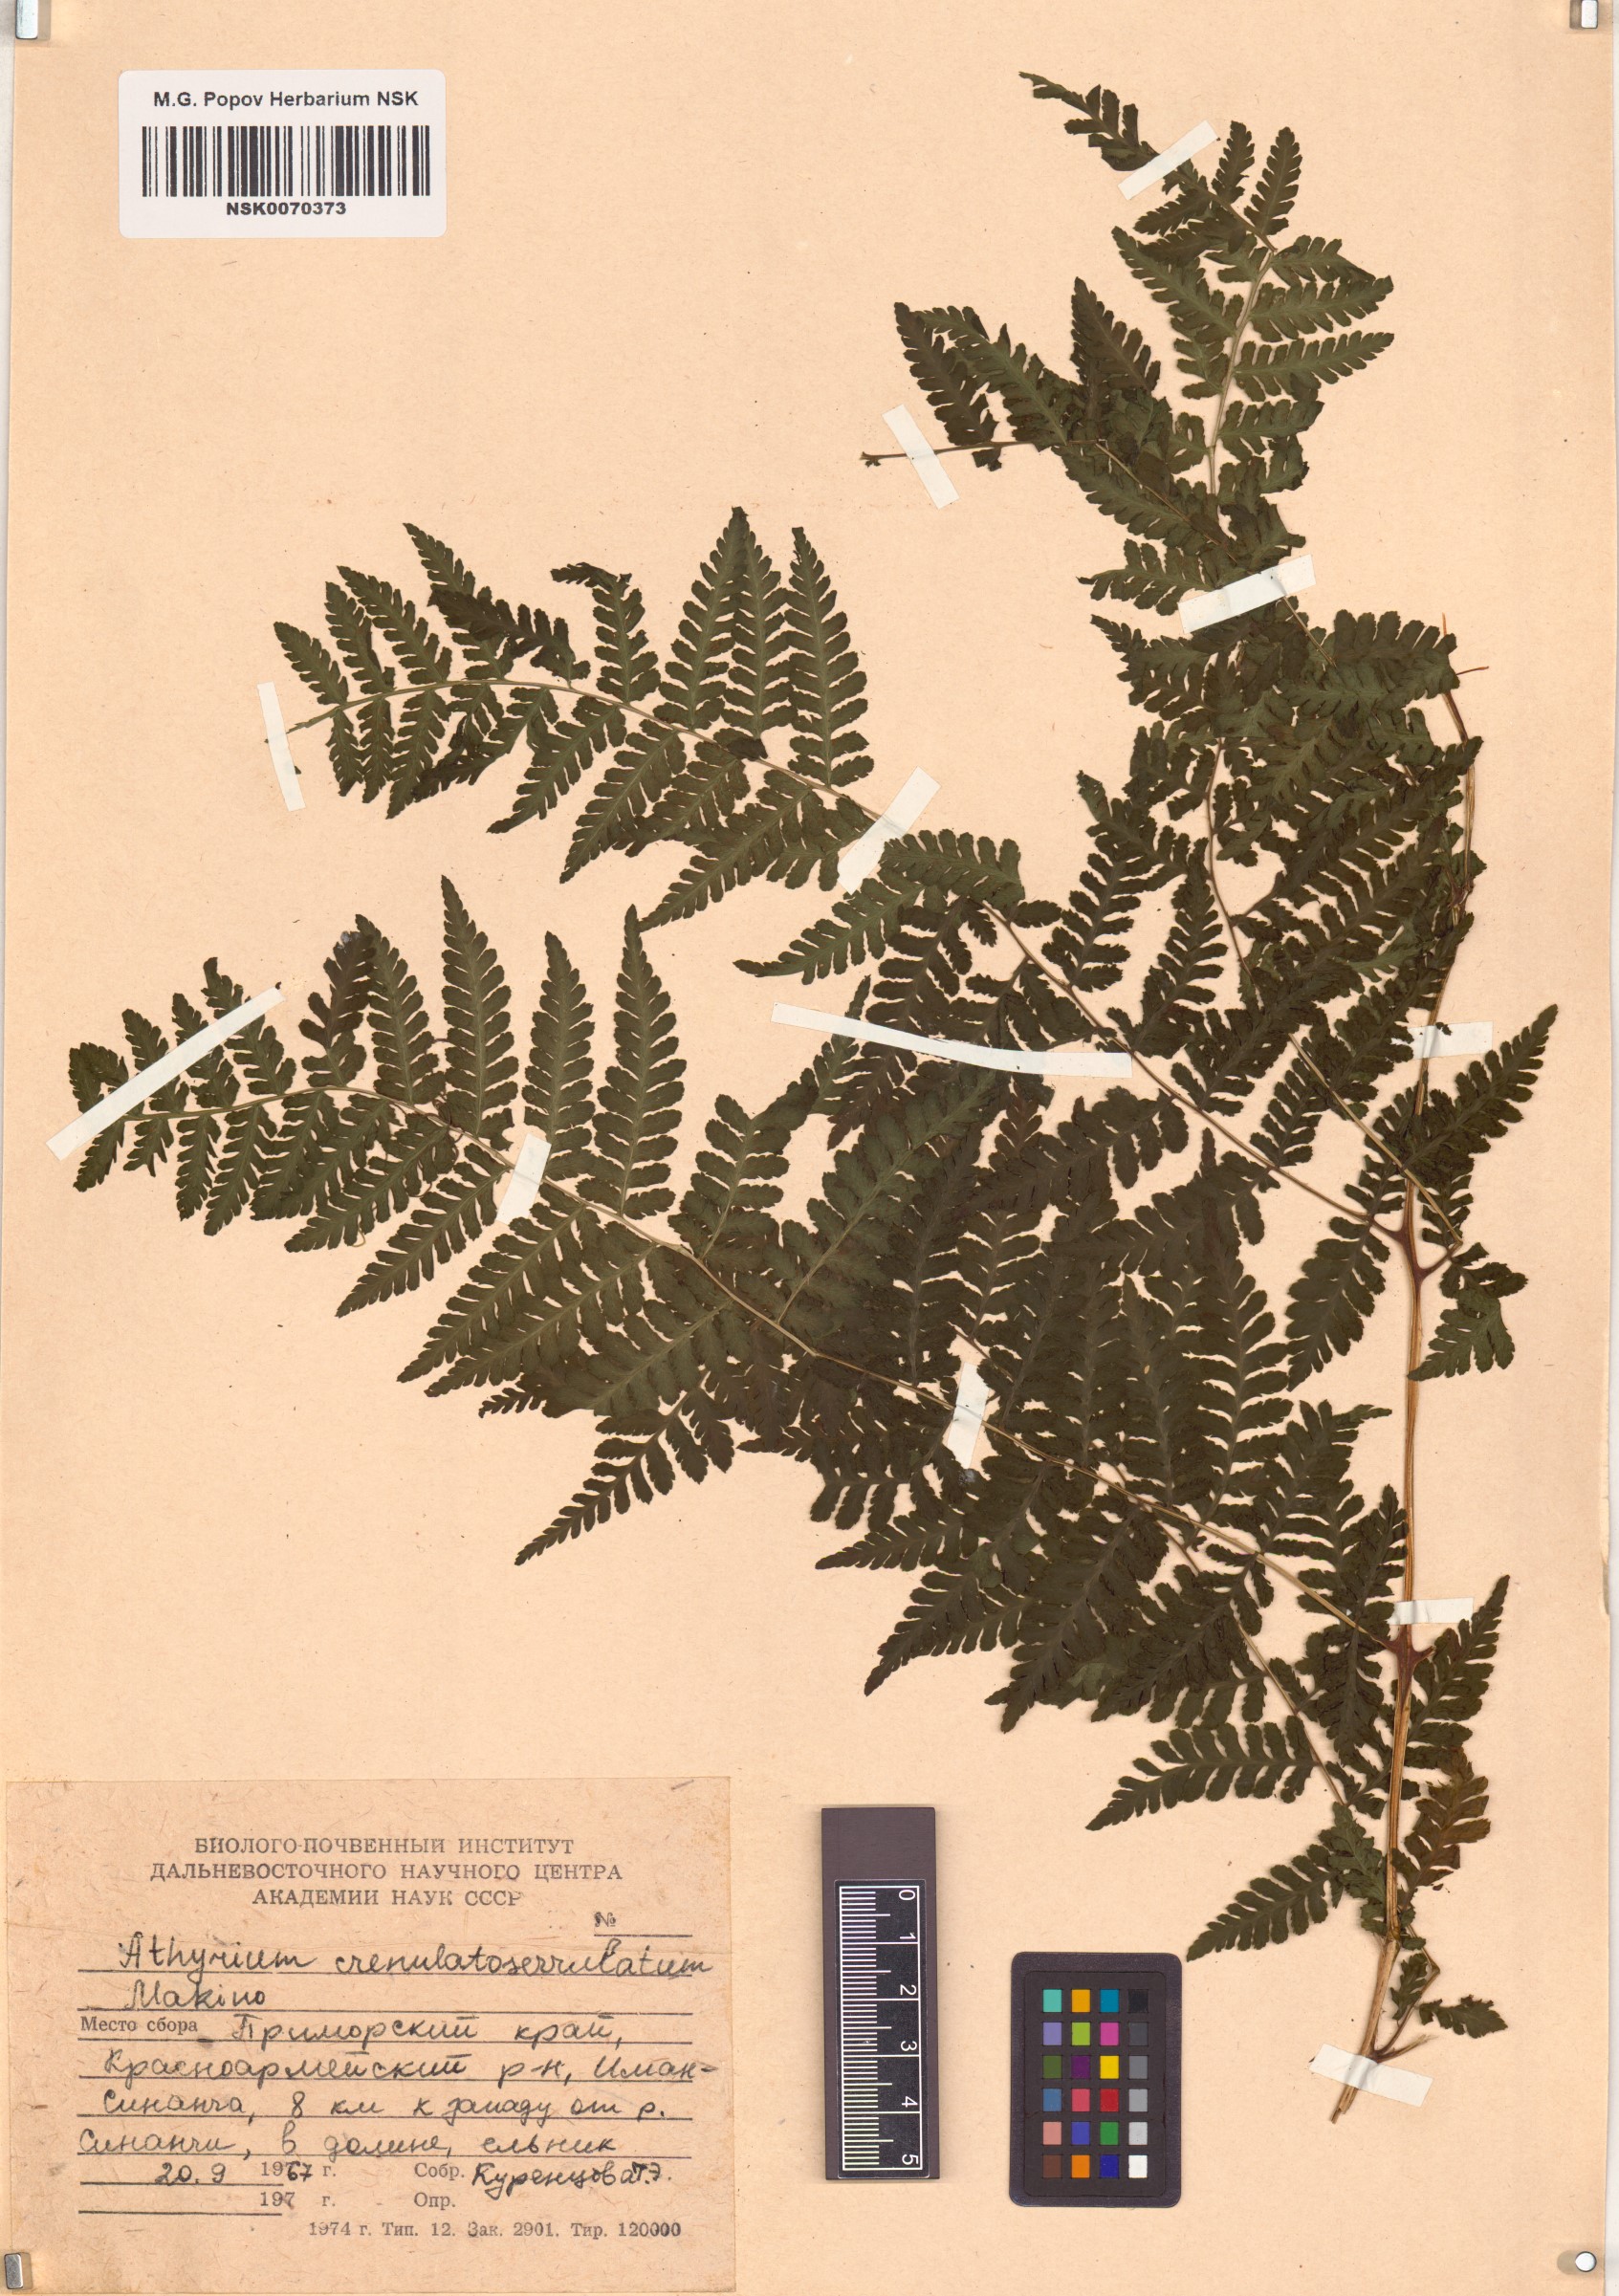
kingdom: Plantae
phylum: Tracheophyta
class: Polypodiopsida
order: Polypodiales
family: Athyriaceae
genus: Cornopteris
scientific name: Cornopteris crenulatoserrulata
